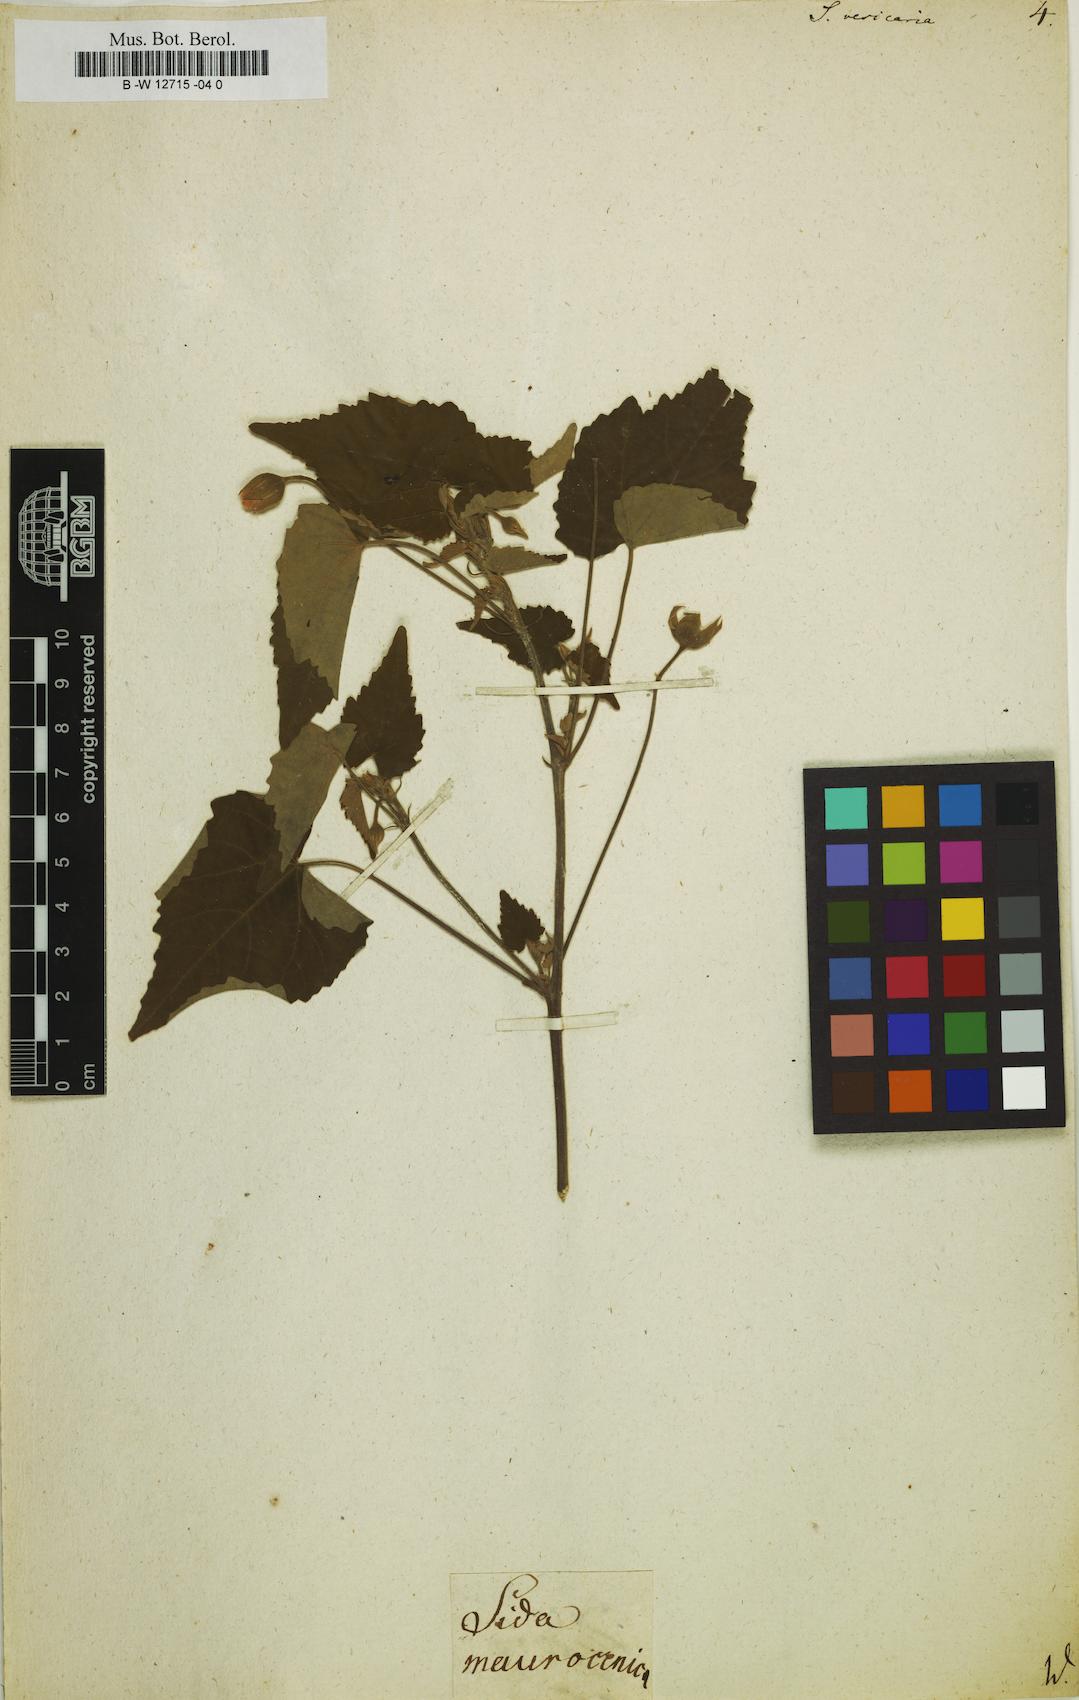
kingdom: Plantae
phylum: Tracheophyta
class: Magnoliopsida
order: Malvales
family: Malvaceae
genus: Sida
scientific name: Sida
